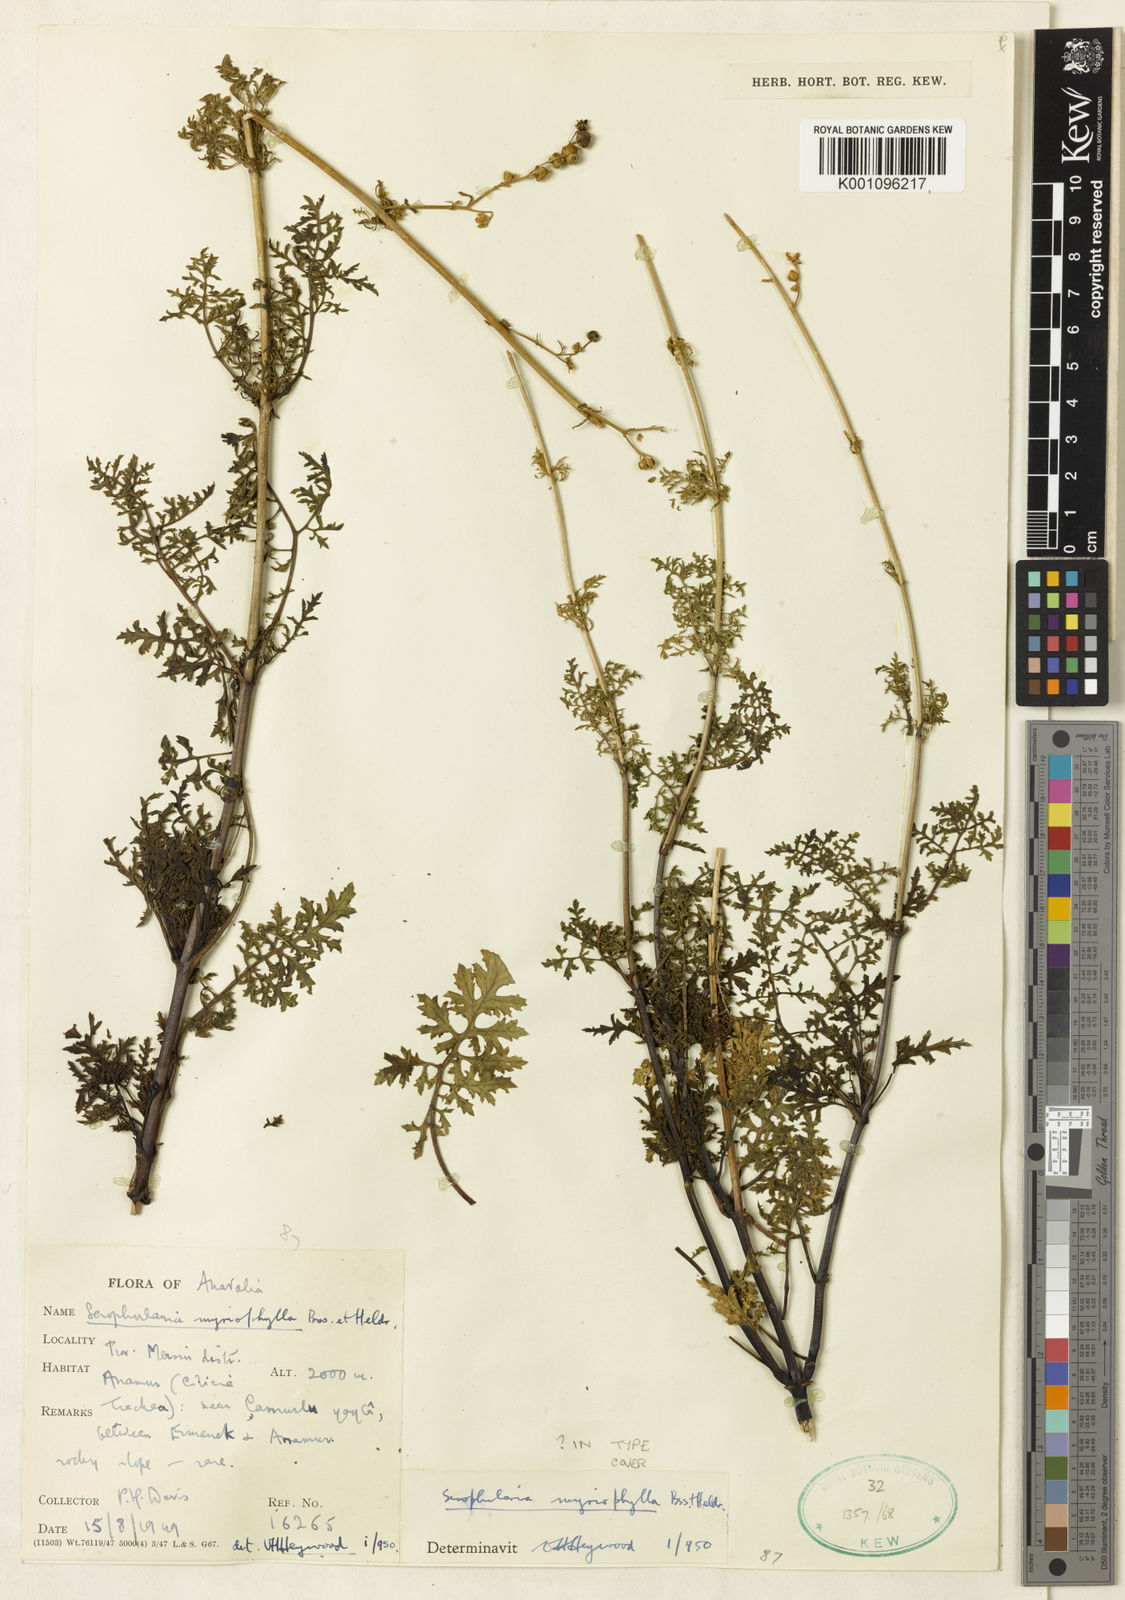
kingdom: Plantae
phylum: Tracheophyta
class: Magnoliopsida
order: Lamiales
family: Scrophulariaceae
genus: Scrophularia
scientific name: Scrophularia myriophylla
